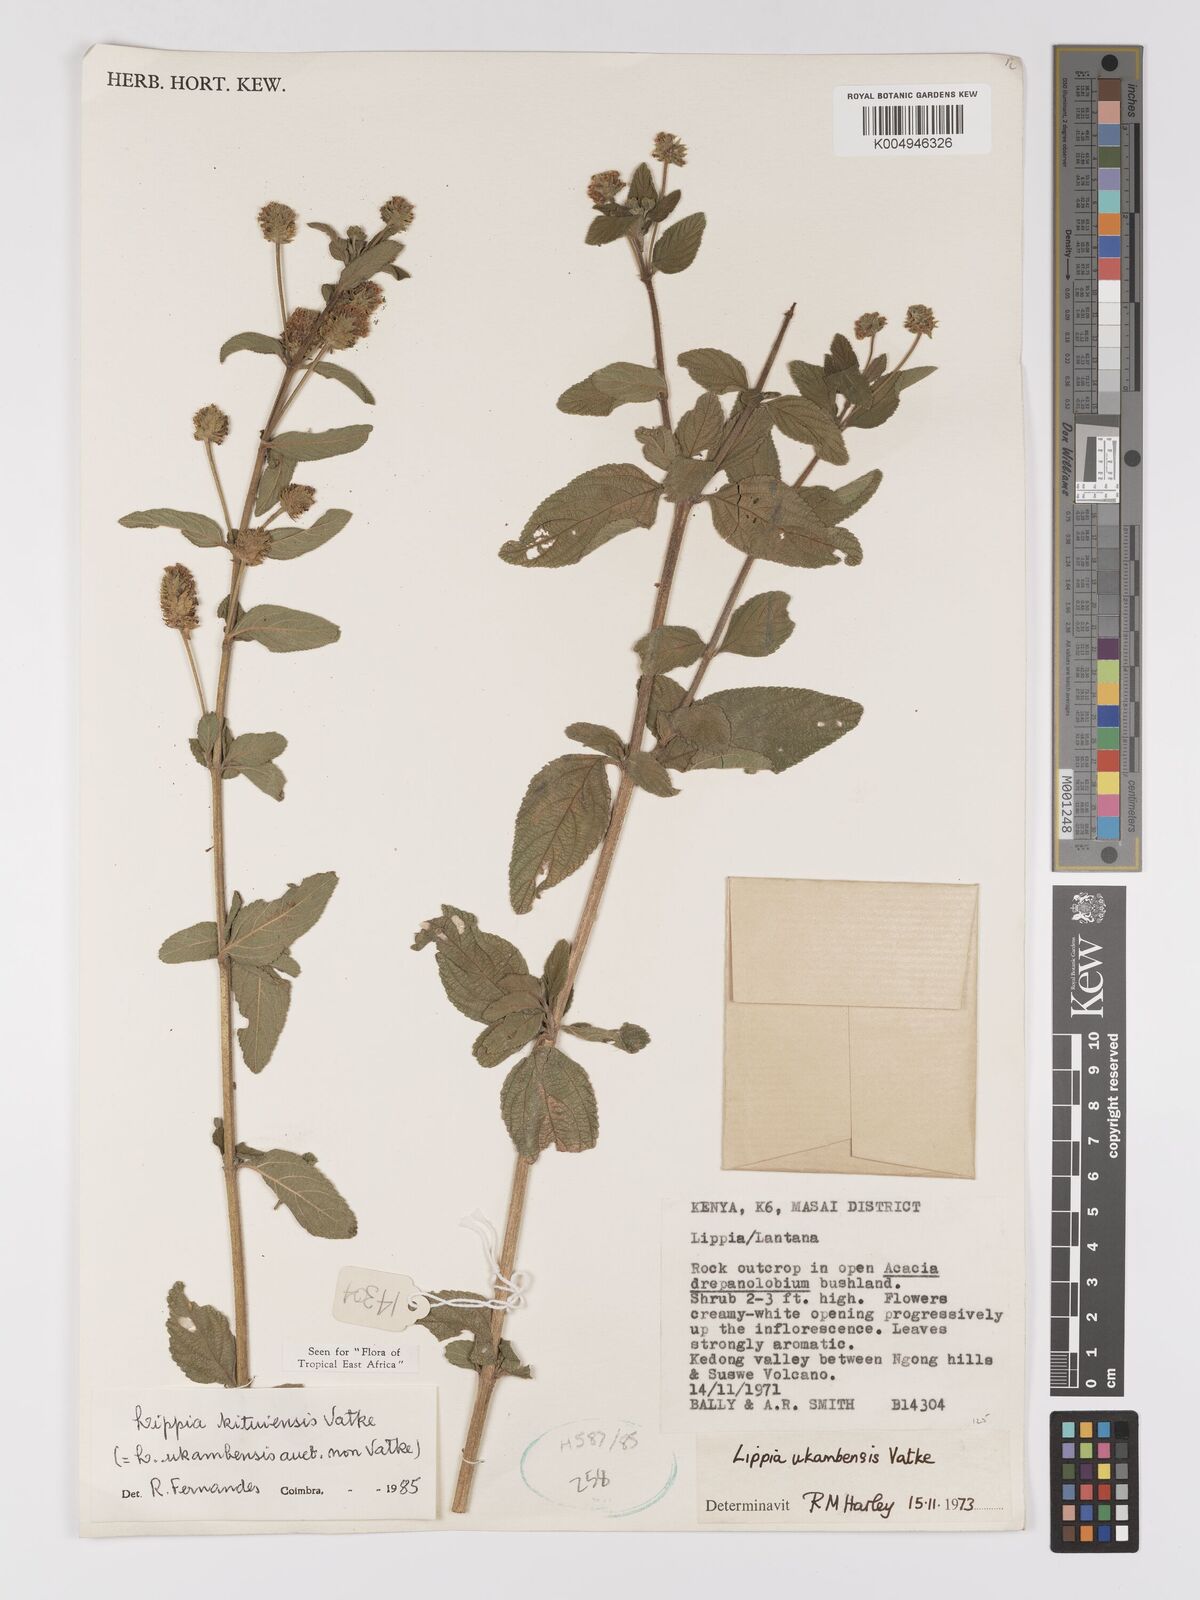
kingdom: Plantae
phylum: Tracheophyta
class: Magnoliopsida
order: Lamiales
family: Verbenaceae
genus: Lantana
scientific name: Lantana ukambensis
